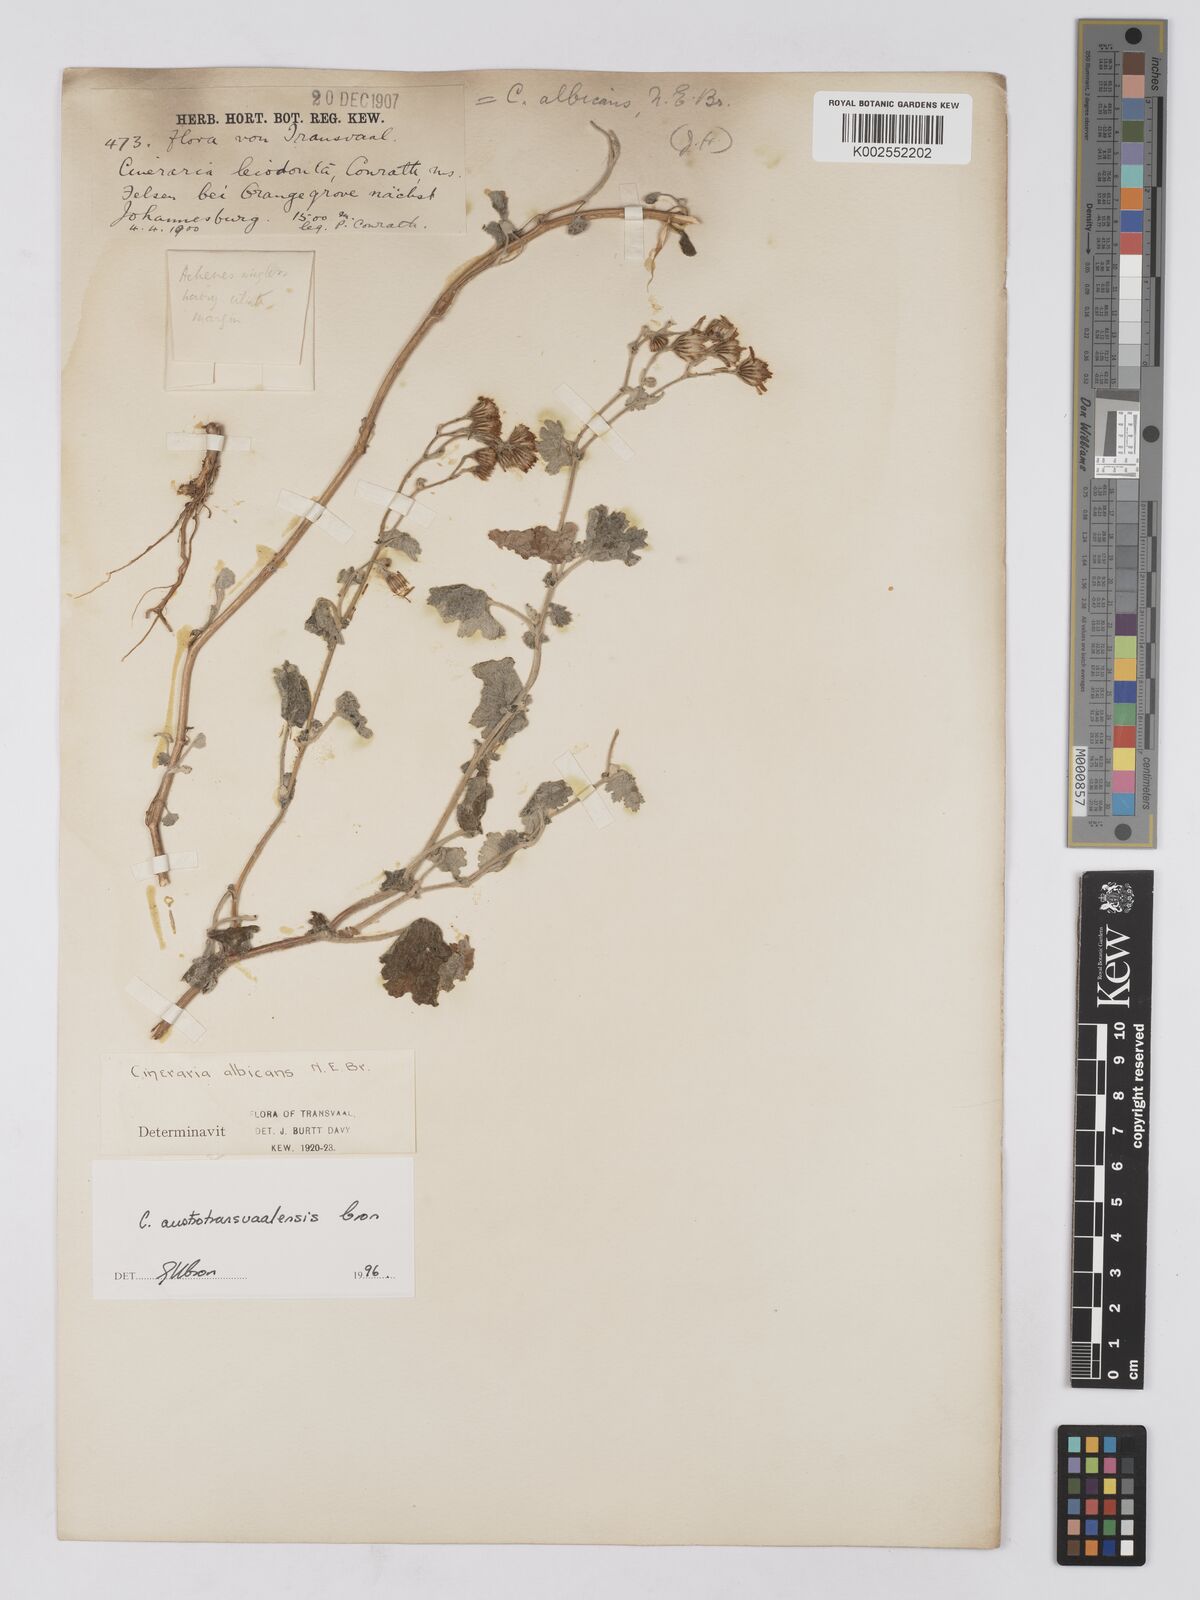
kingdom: Plantae
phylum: Tracheophyta
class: Magnoliopsida
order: Asterales
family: Asteraceae
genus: Cineraria
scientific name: Cineraria austrotransvaalensis
